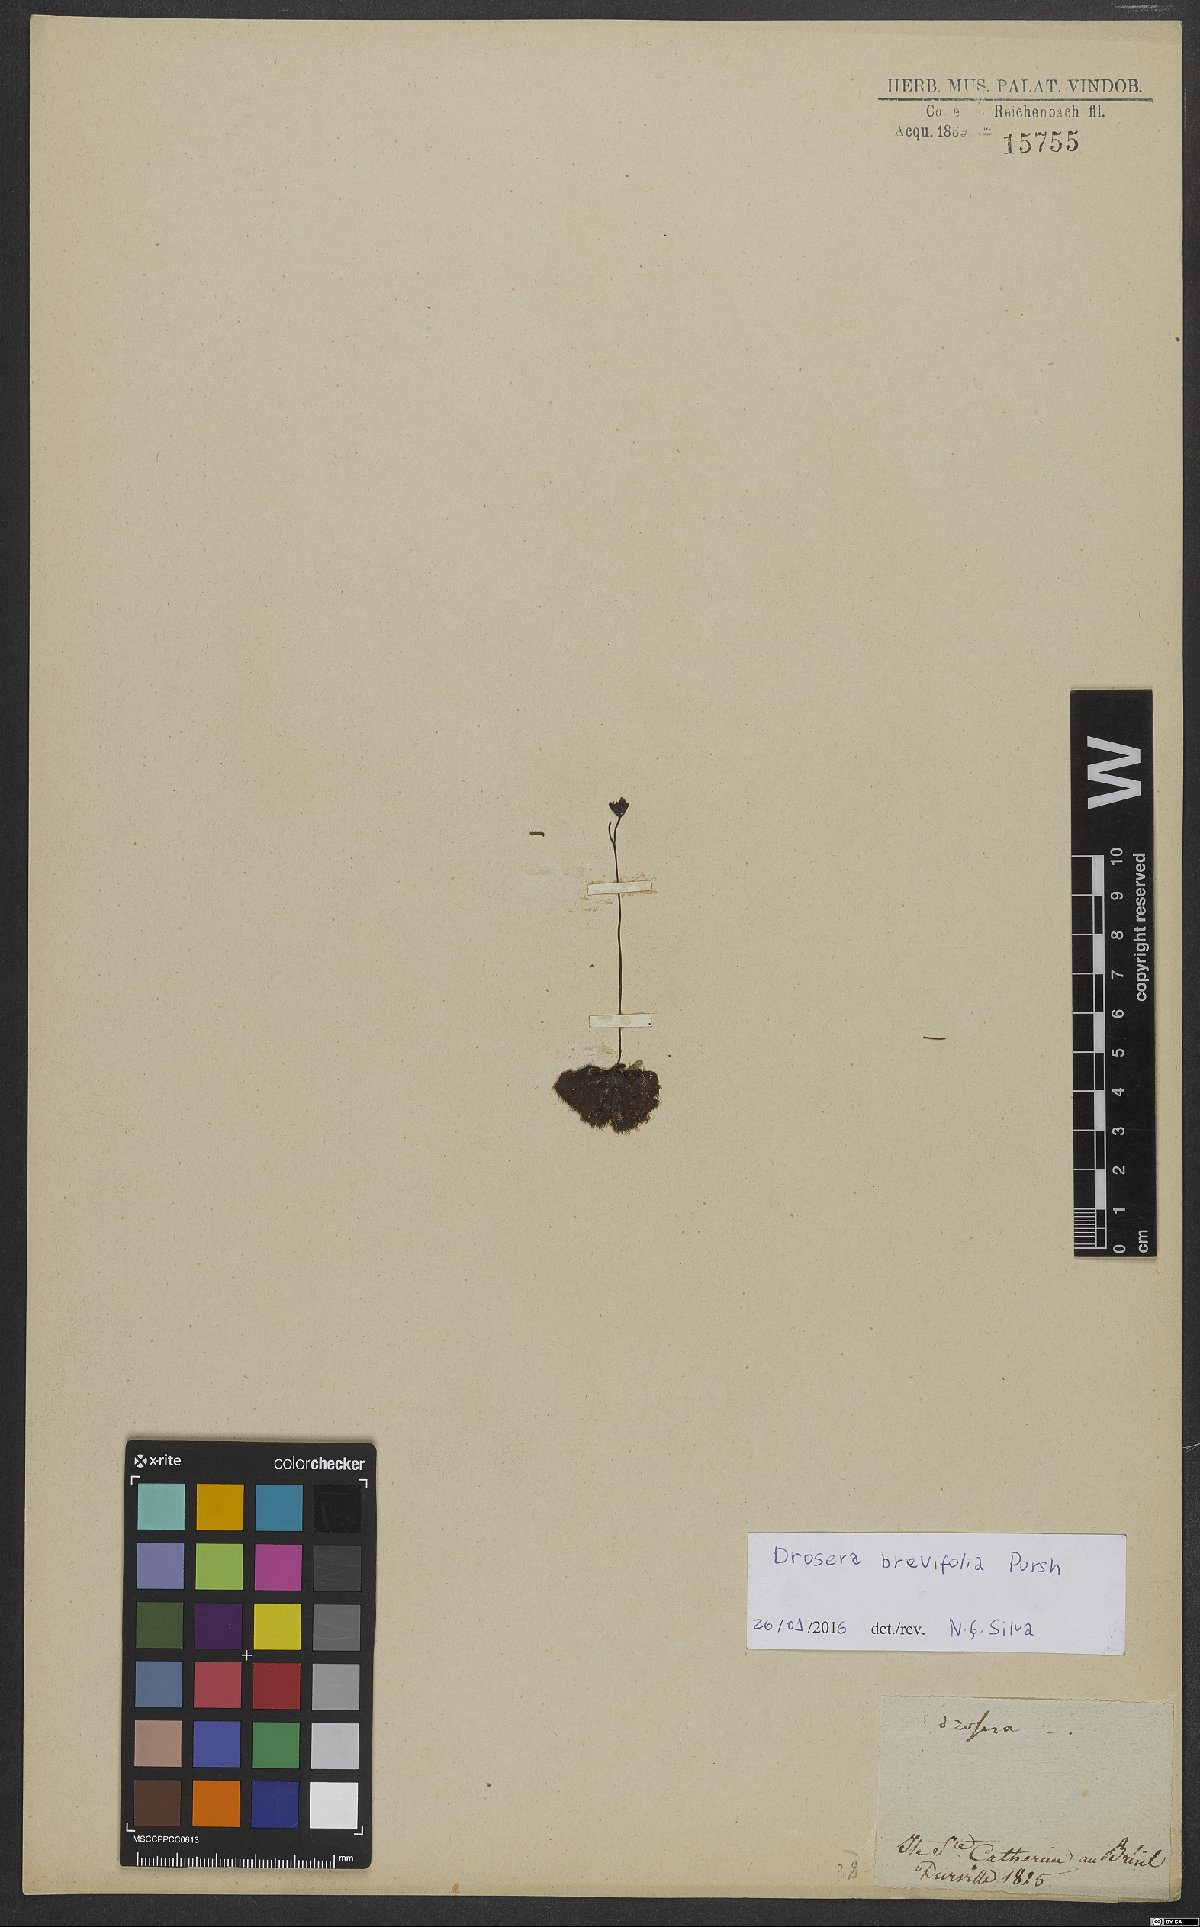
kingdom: Plantae
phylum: Tracheophyta
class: Magnoliopsida
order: Caryophyllales
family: Droseraceae
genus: Drosera
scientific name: Drosera brevifolia
